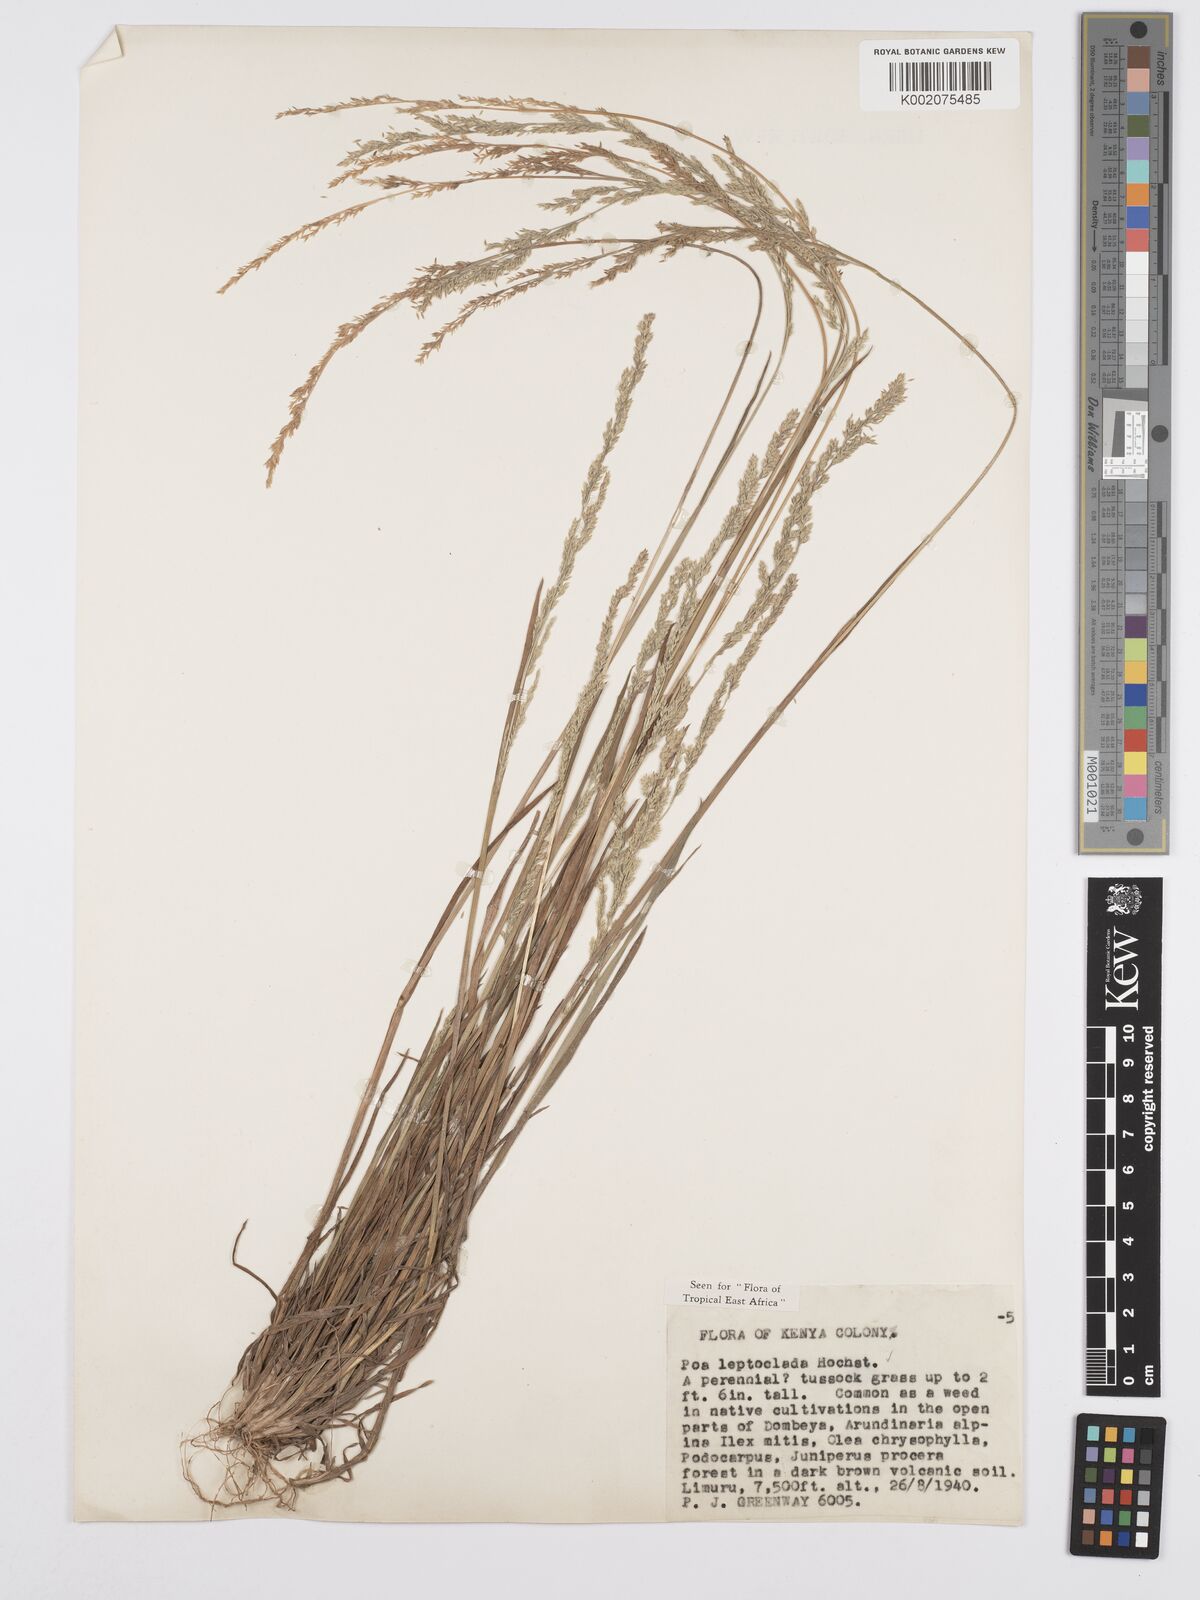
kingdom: Plantae
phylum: Tracheophyta
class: Liliopsida
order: Poales
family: Poaceae
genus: Poa
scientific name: Poa leptoclada
